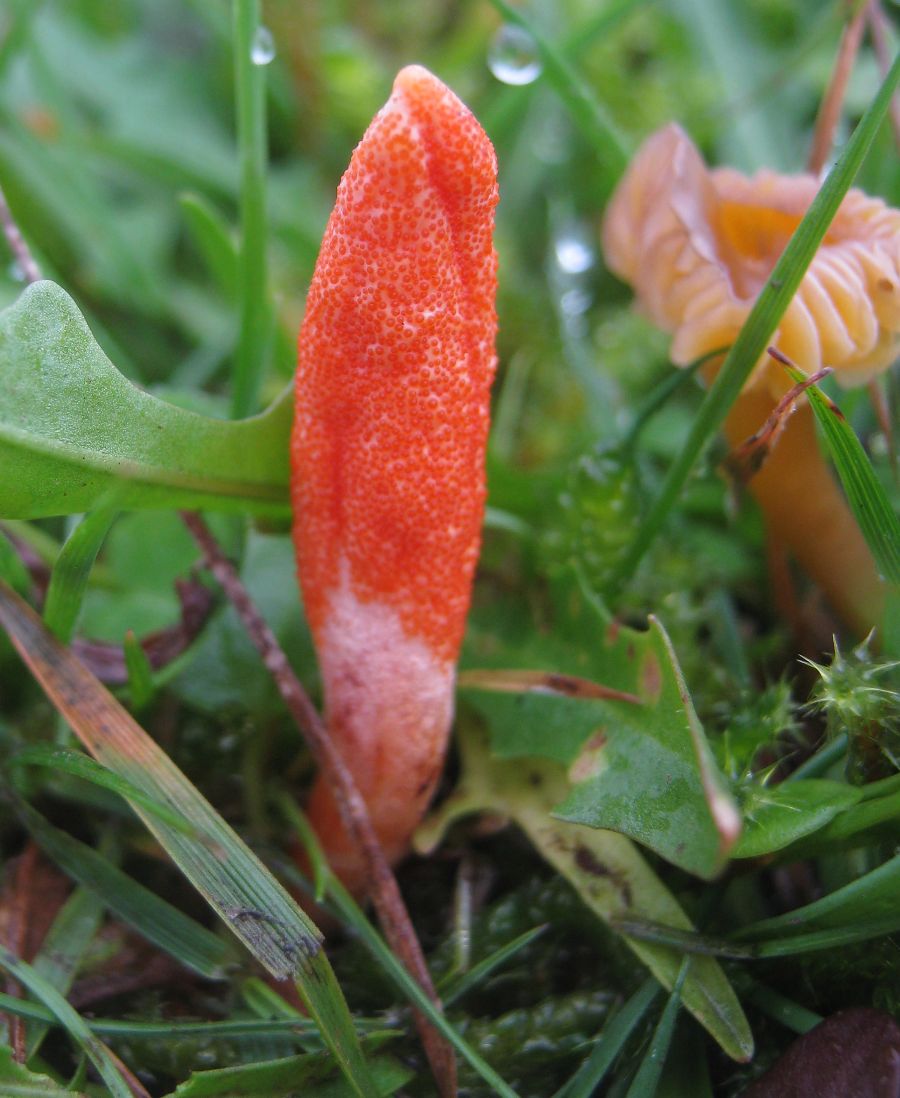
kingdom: Fungi
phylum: Ascomycota
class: Sordariomycetes
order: Hypocreales
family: Cordycipitaceae
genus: Cordyceps
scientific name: Cordyceps militaris
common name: puppe-snyltekølle
